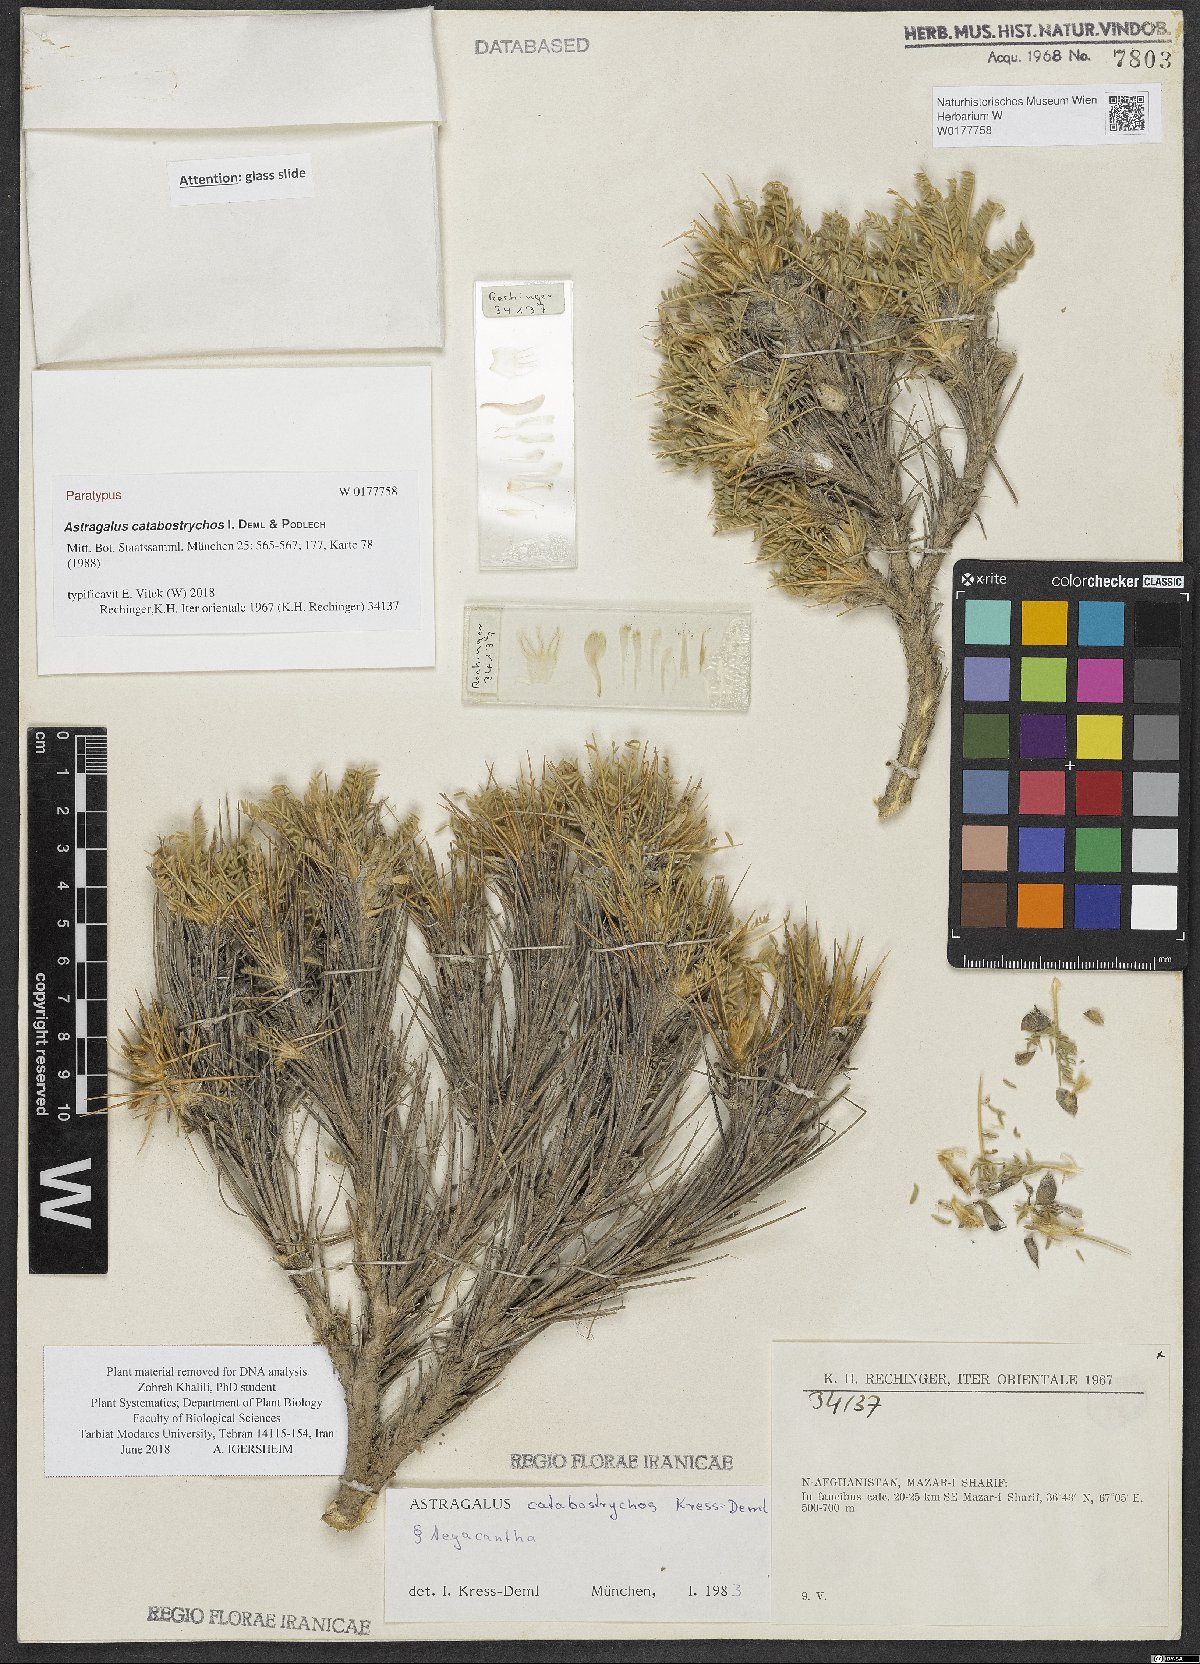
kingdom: Plantae
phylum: Tracheophyta
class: Magnoliopsida
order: Fabales
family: Fabaceae
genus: Astragalus
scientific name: Astragalus catabostrychos
